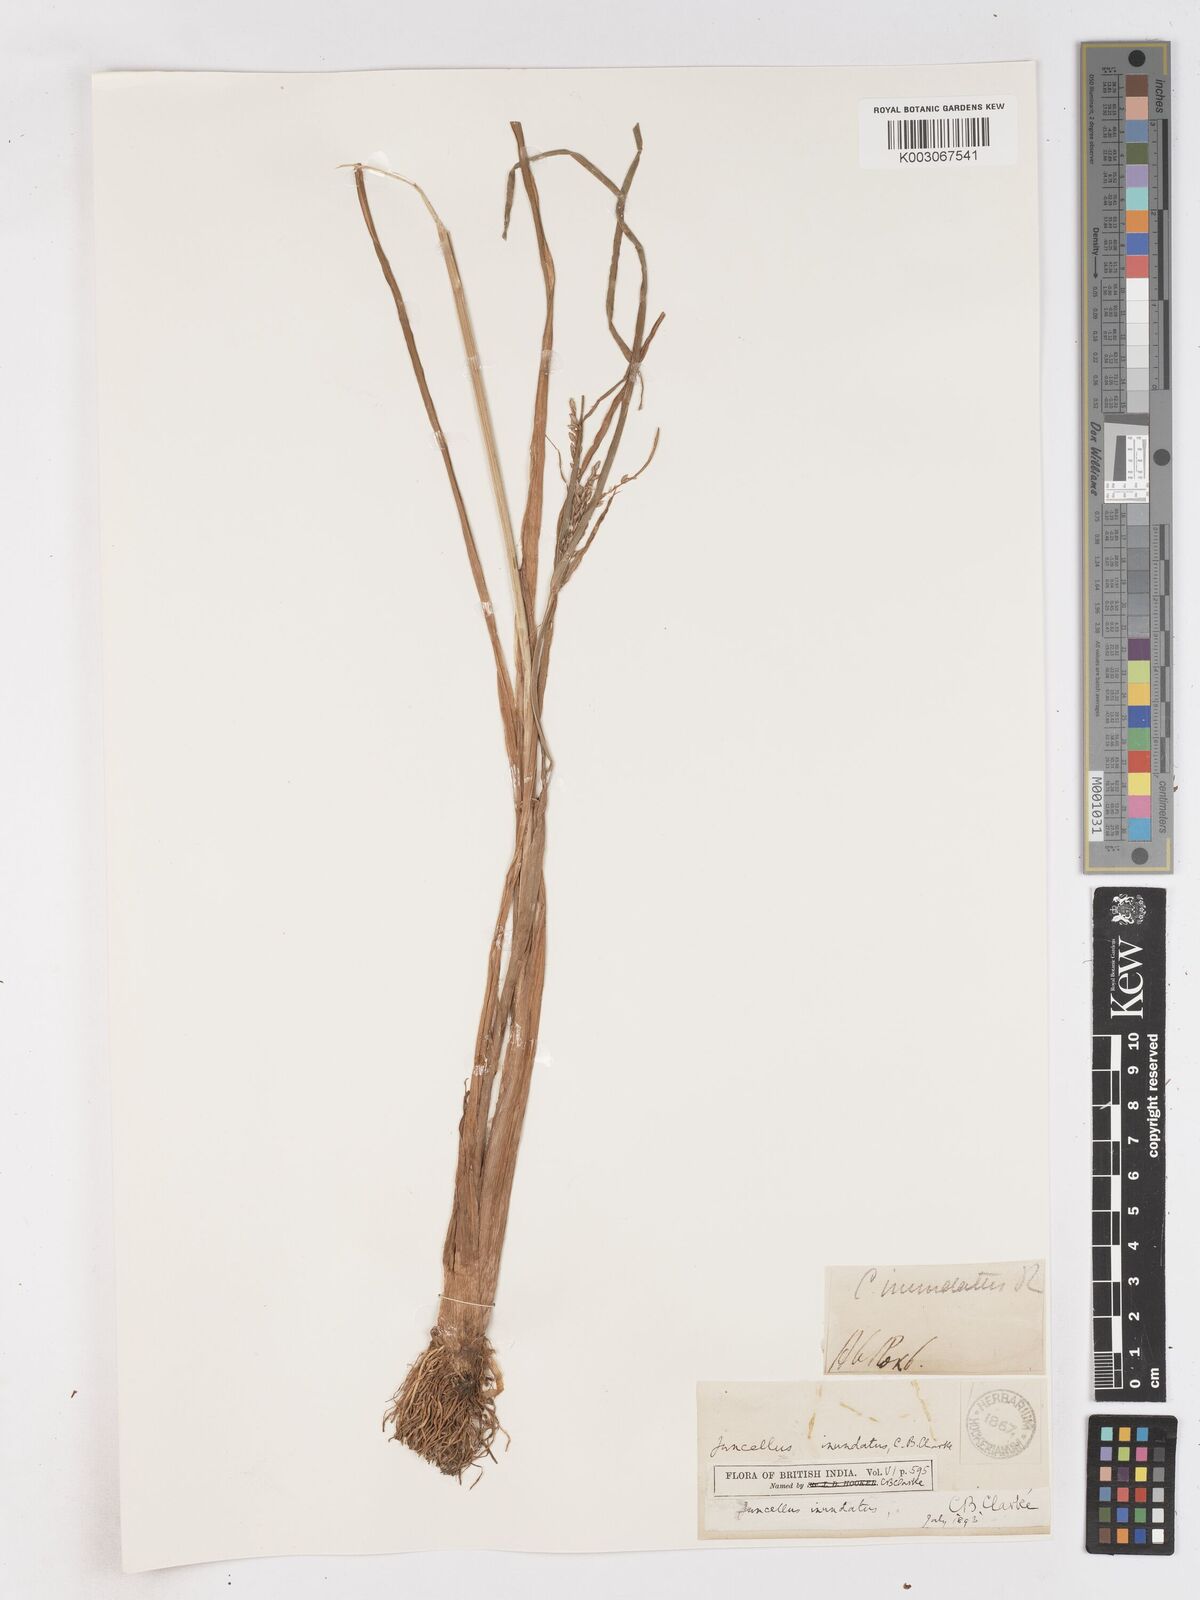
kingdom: Plantae
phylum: Tracheophyta
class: Liliopsida
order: Poales
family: Cyperaceae
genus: Cyperus
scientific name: Cyperus serotinus
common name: Tidalmarsh flatsedge
